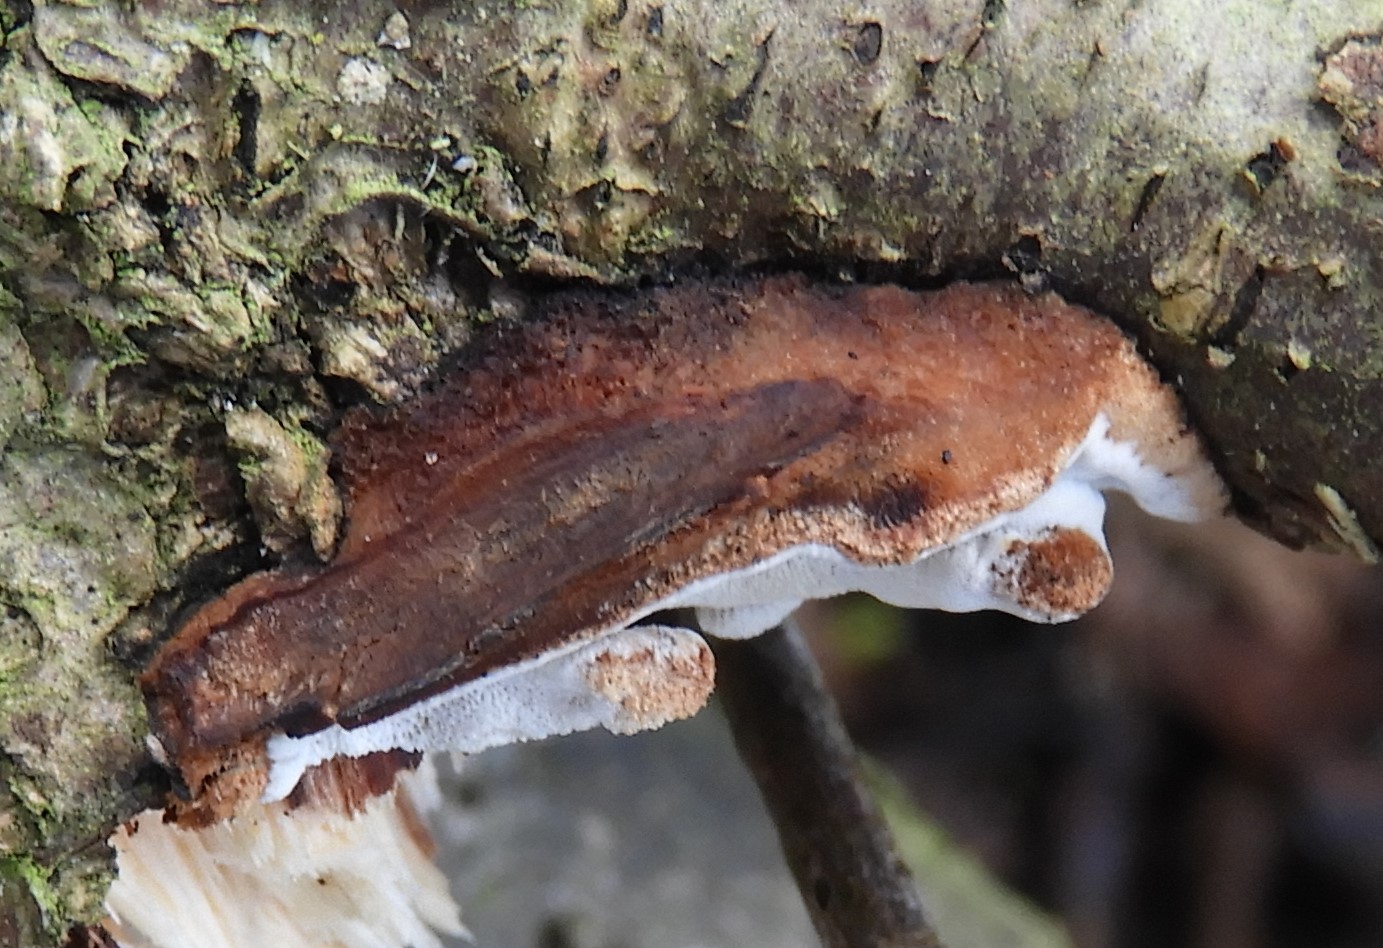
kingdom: Fungi
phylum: Basidiomycota
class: Agaricomycetes
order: Polyporales
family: Incrustoporiaceae
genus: Skeletocutis
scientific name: Skeletocutis nemoralis
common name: stor krystalporesvamp
